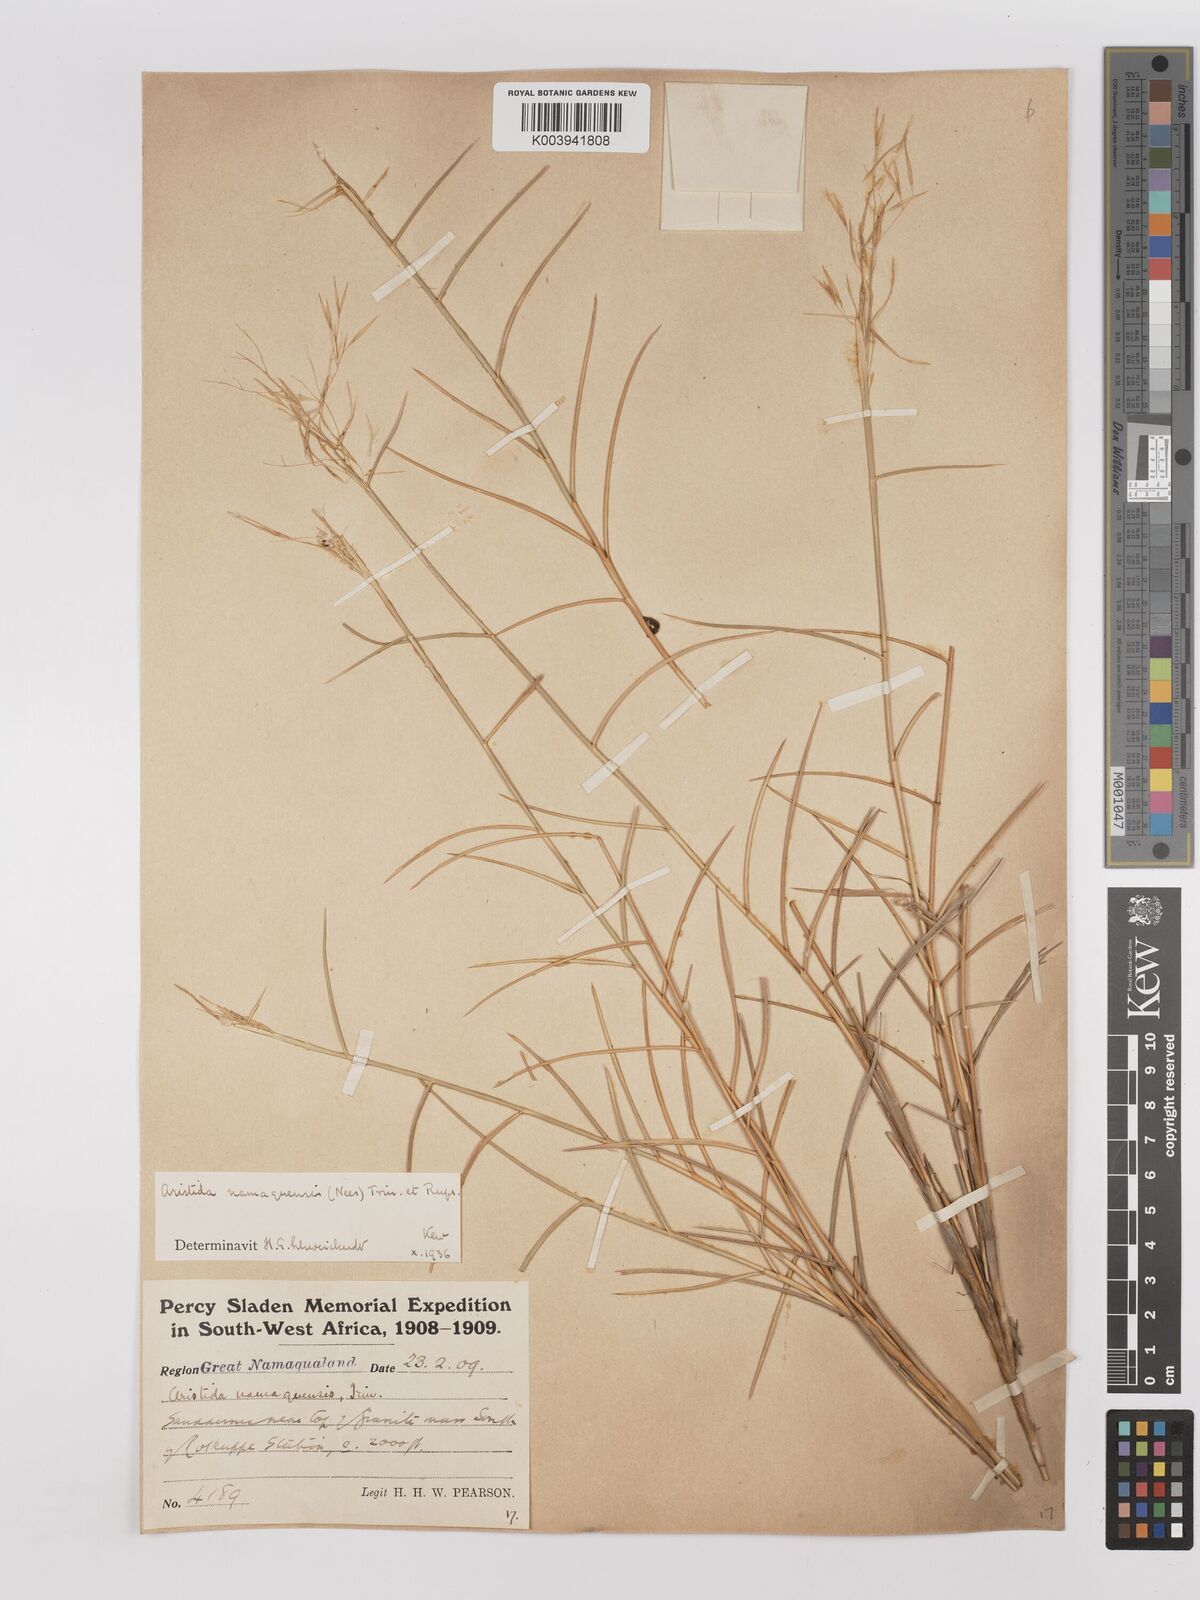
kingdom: Plantae
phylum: Tracheophyta
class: Liliopsida
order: Poales
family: Poaceae
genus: Stipagrostis
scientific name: Stipagrostis namaquensis
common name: River bushman grass
